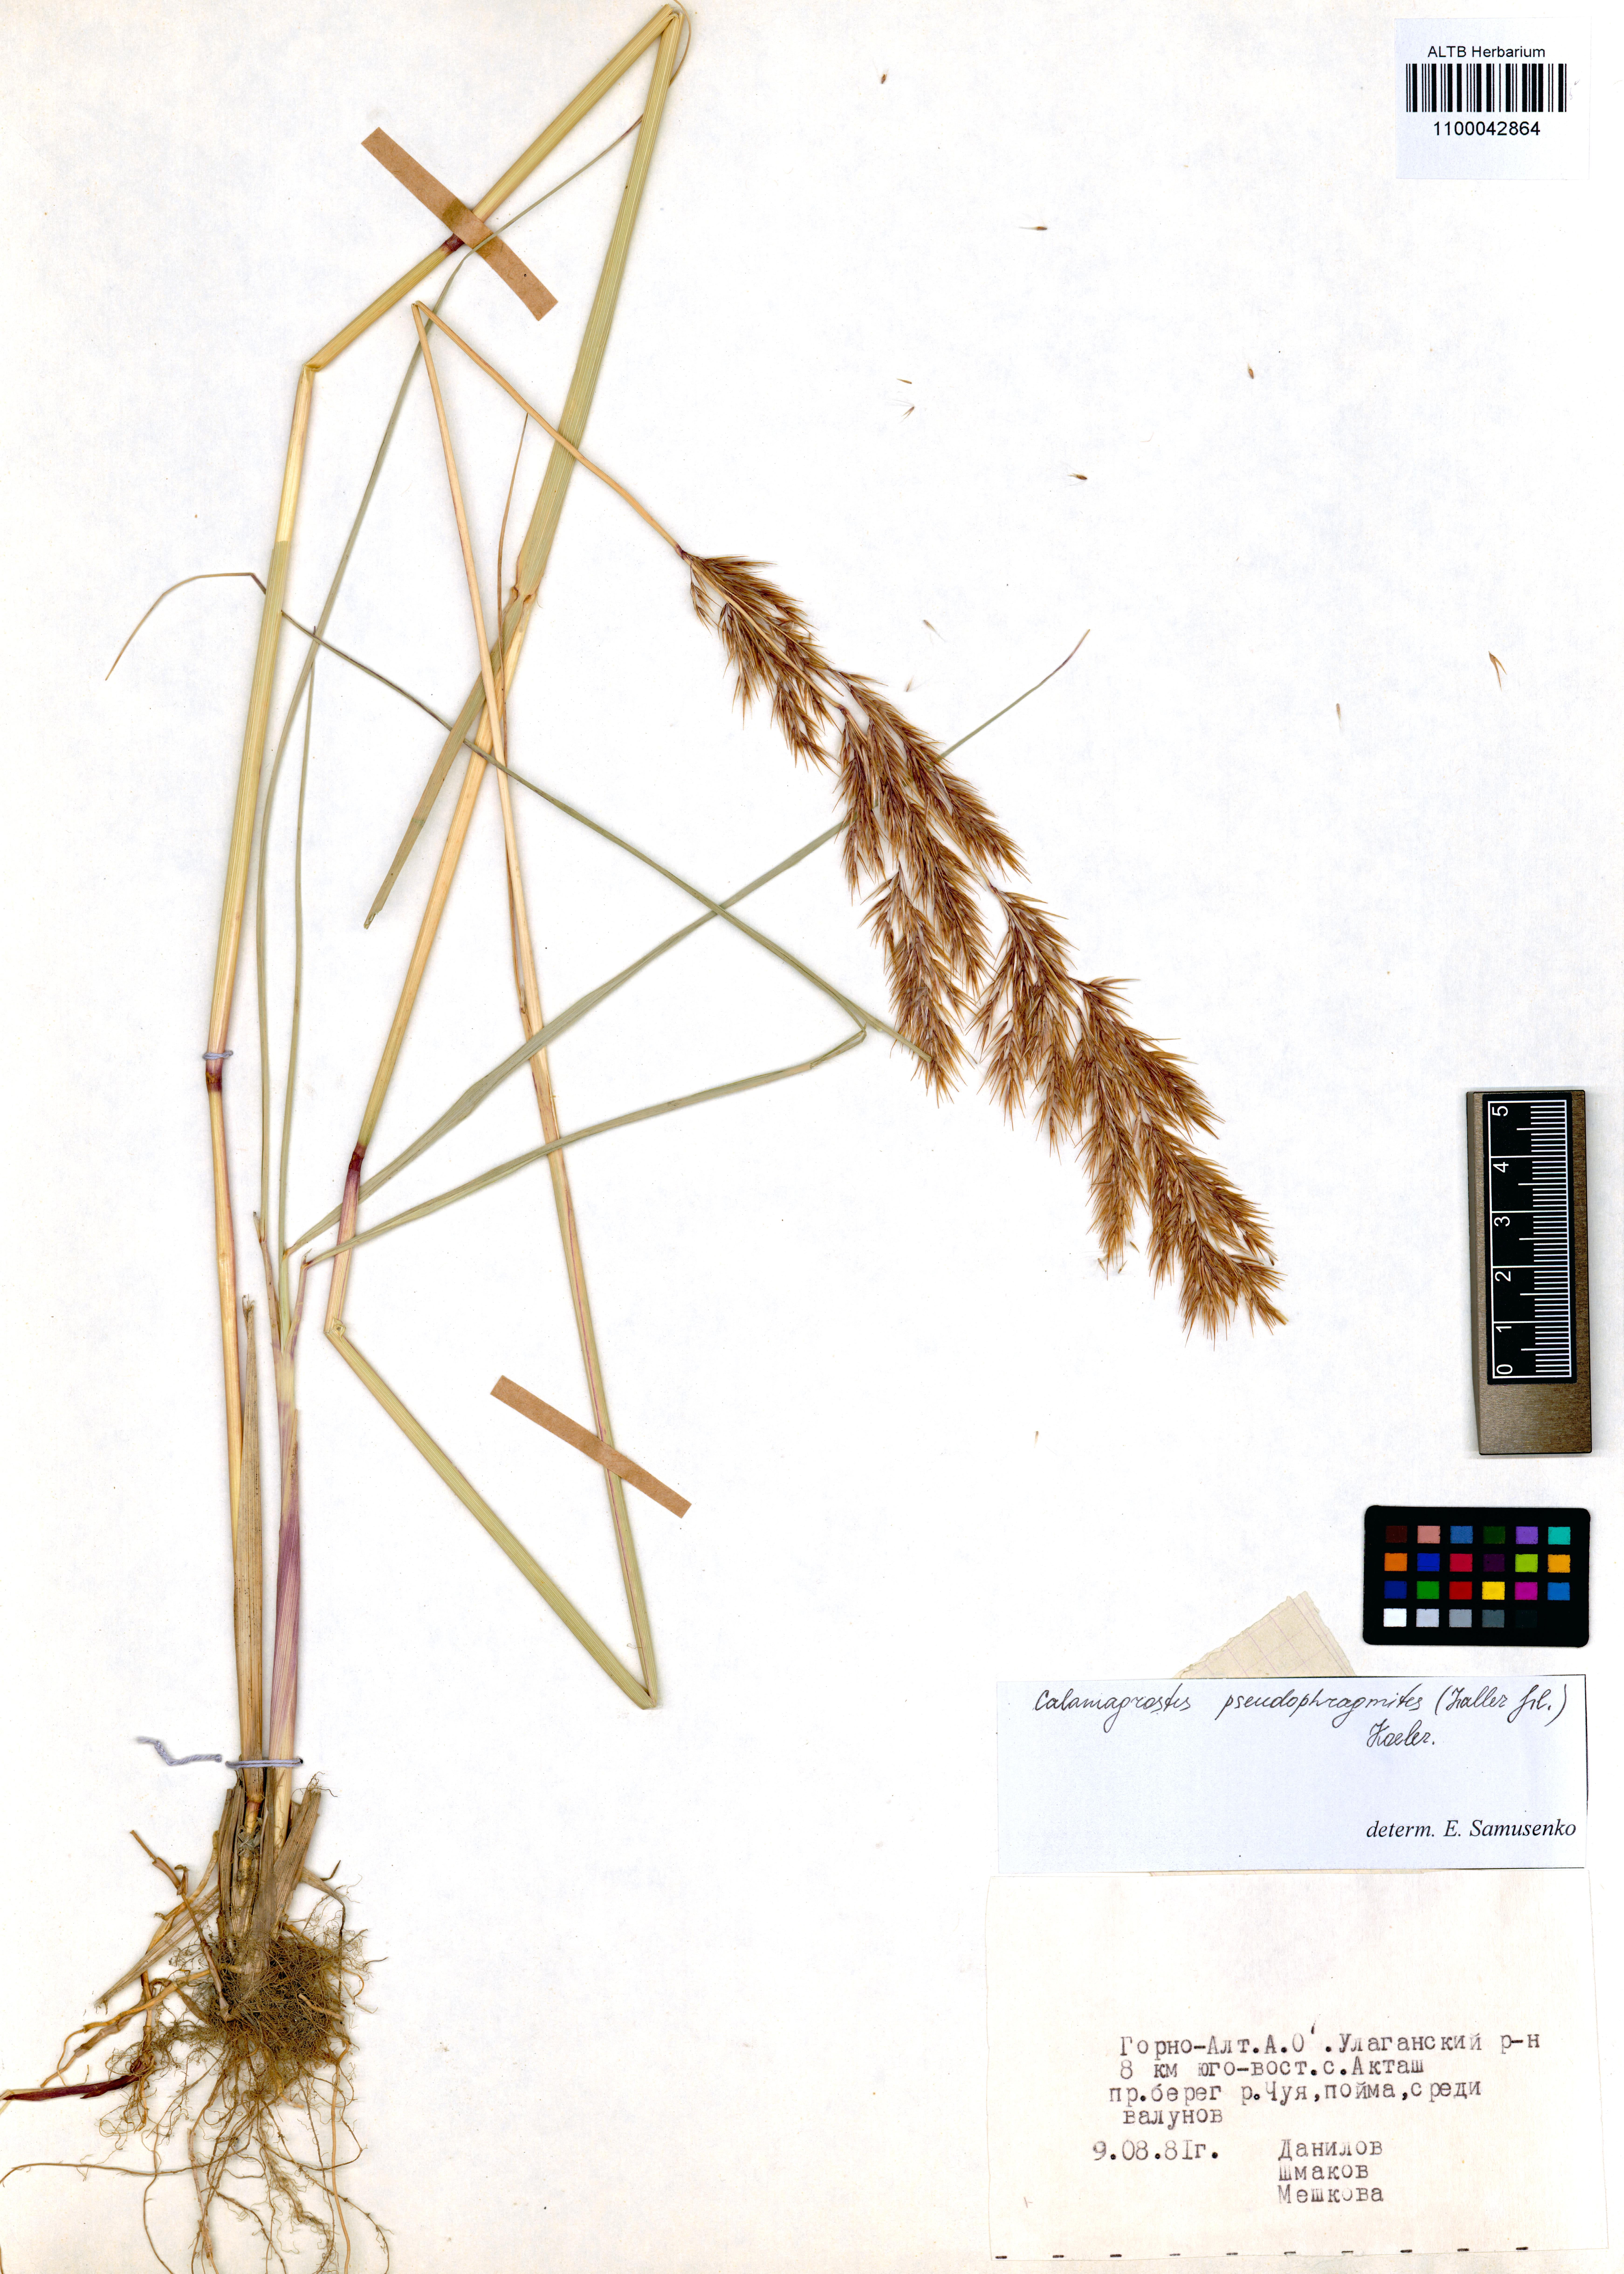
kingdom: Plantae
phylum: Tracheophyta
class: Liliopsida
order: Poales
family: Poaceae
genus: Calamagrostis
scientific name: Calamagrostis pseudophragmites
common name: Coastal small-reed
